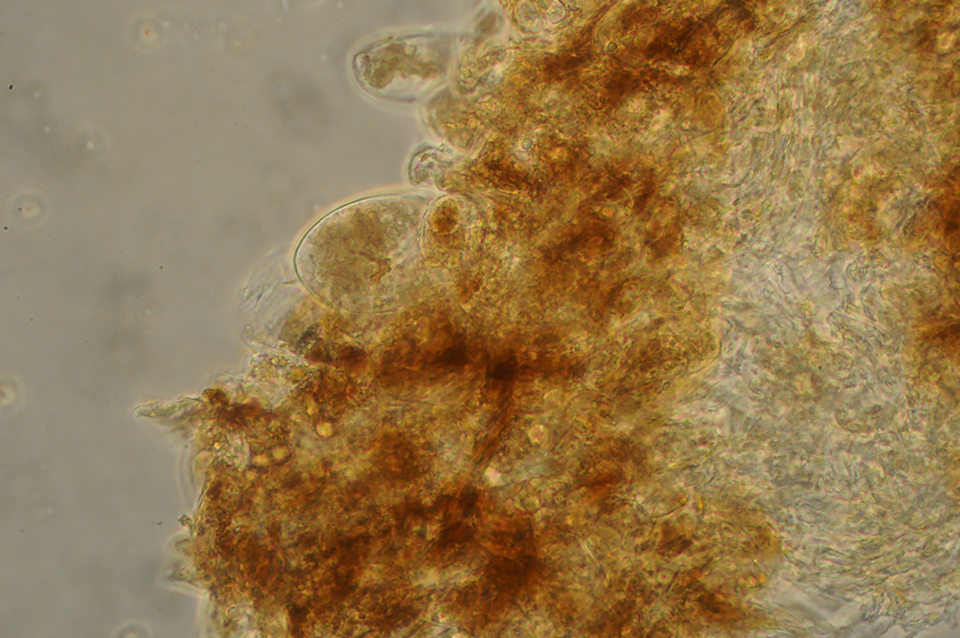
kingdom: Fungi
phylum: Basidiomycota
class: Agaricomycetes
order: Agaricales
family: Entolomataceae
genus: Entoloma
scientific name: Entoloma indikon
